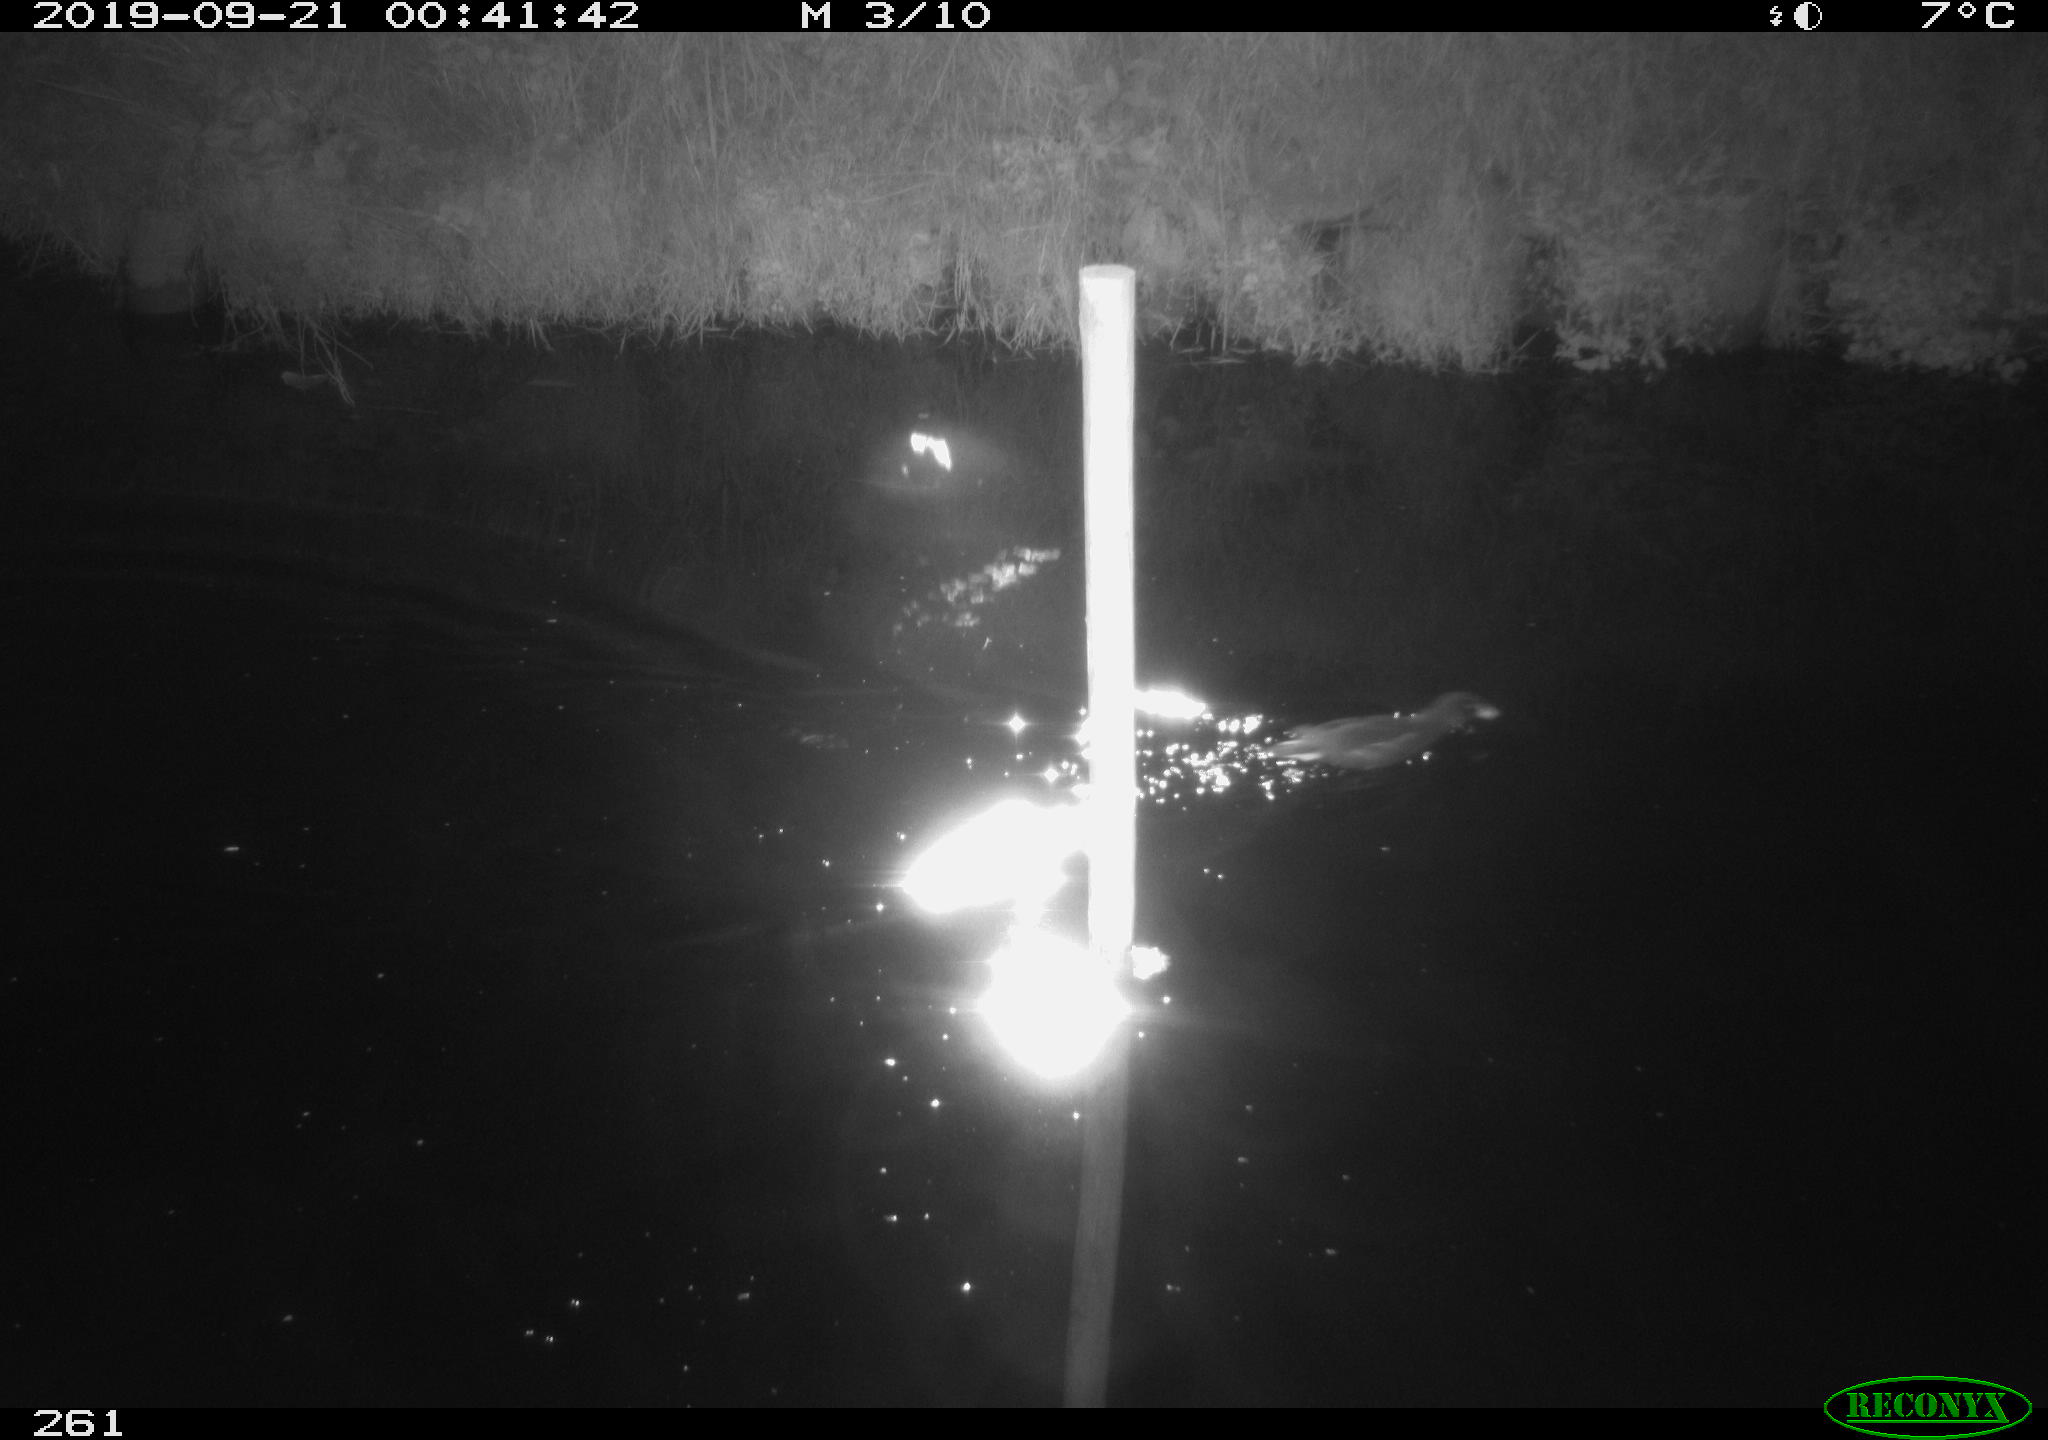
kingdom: Animalia
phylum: Chordata
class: Aves
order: Gruiformes
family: Rallidae
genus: Gallinula
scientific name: Gallinula chloropus
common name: Common moorhen
